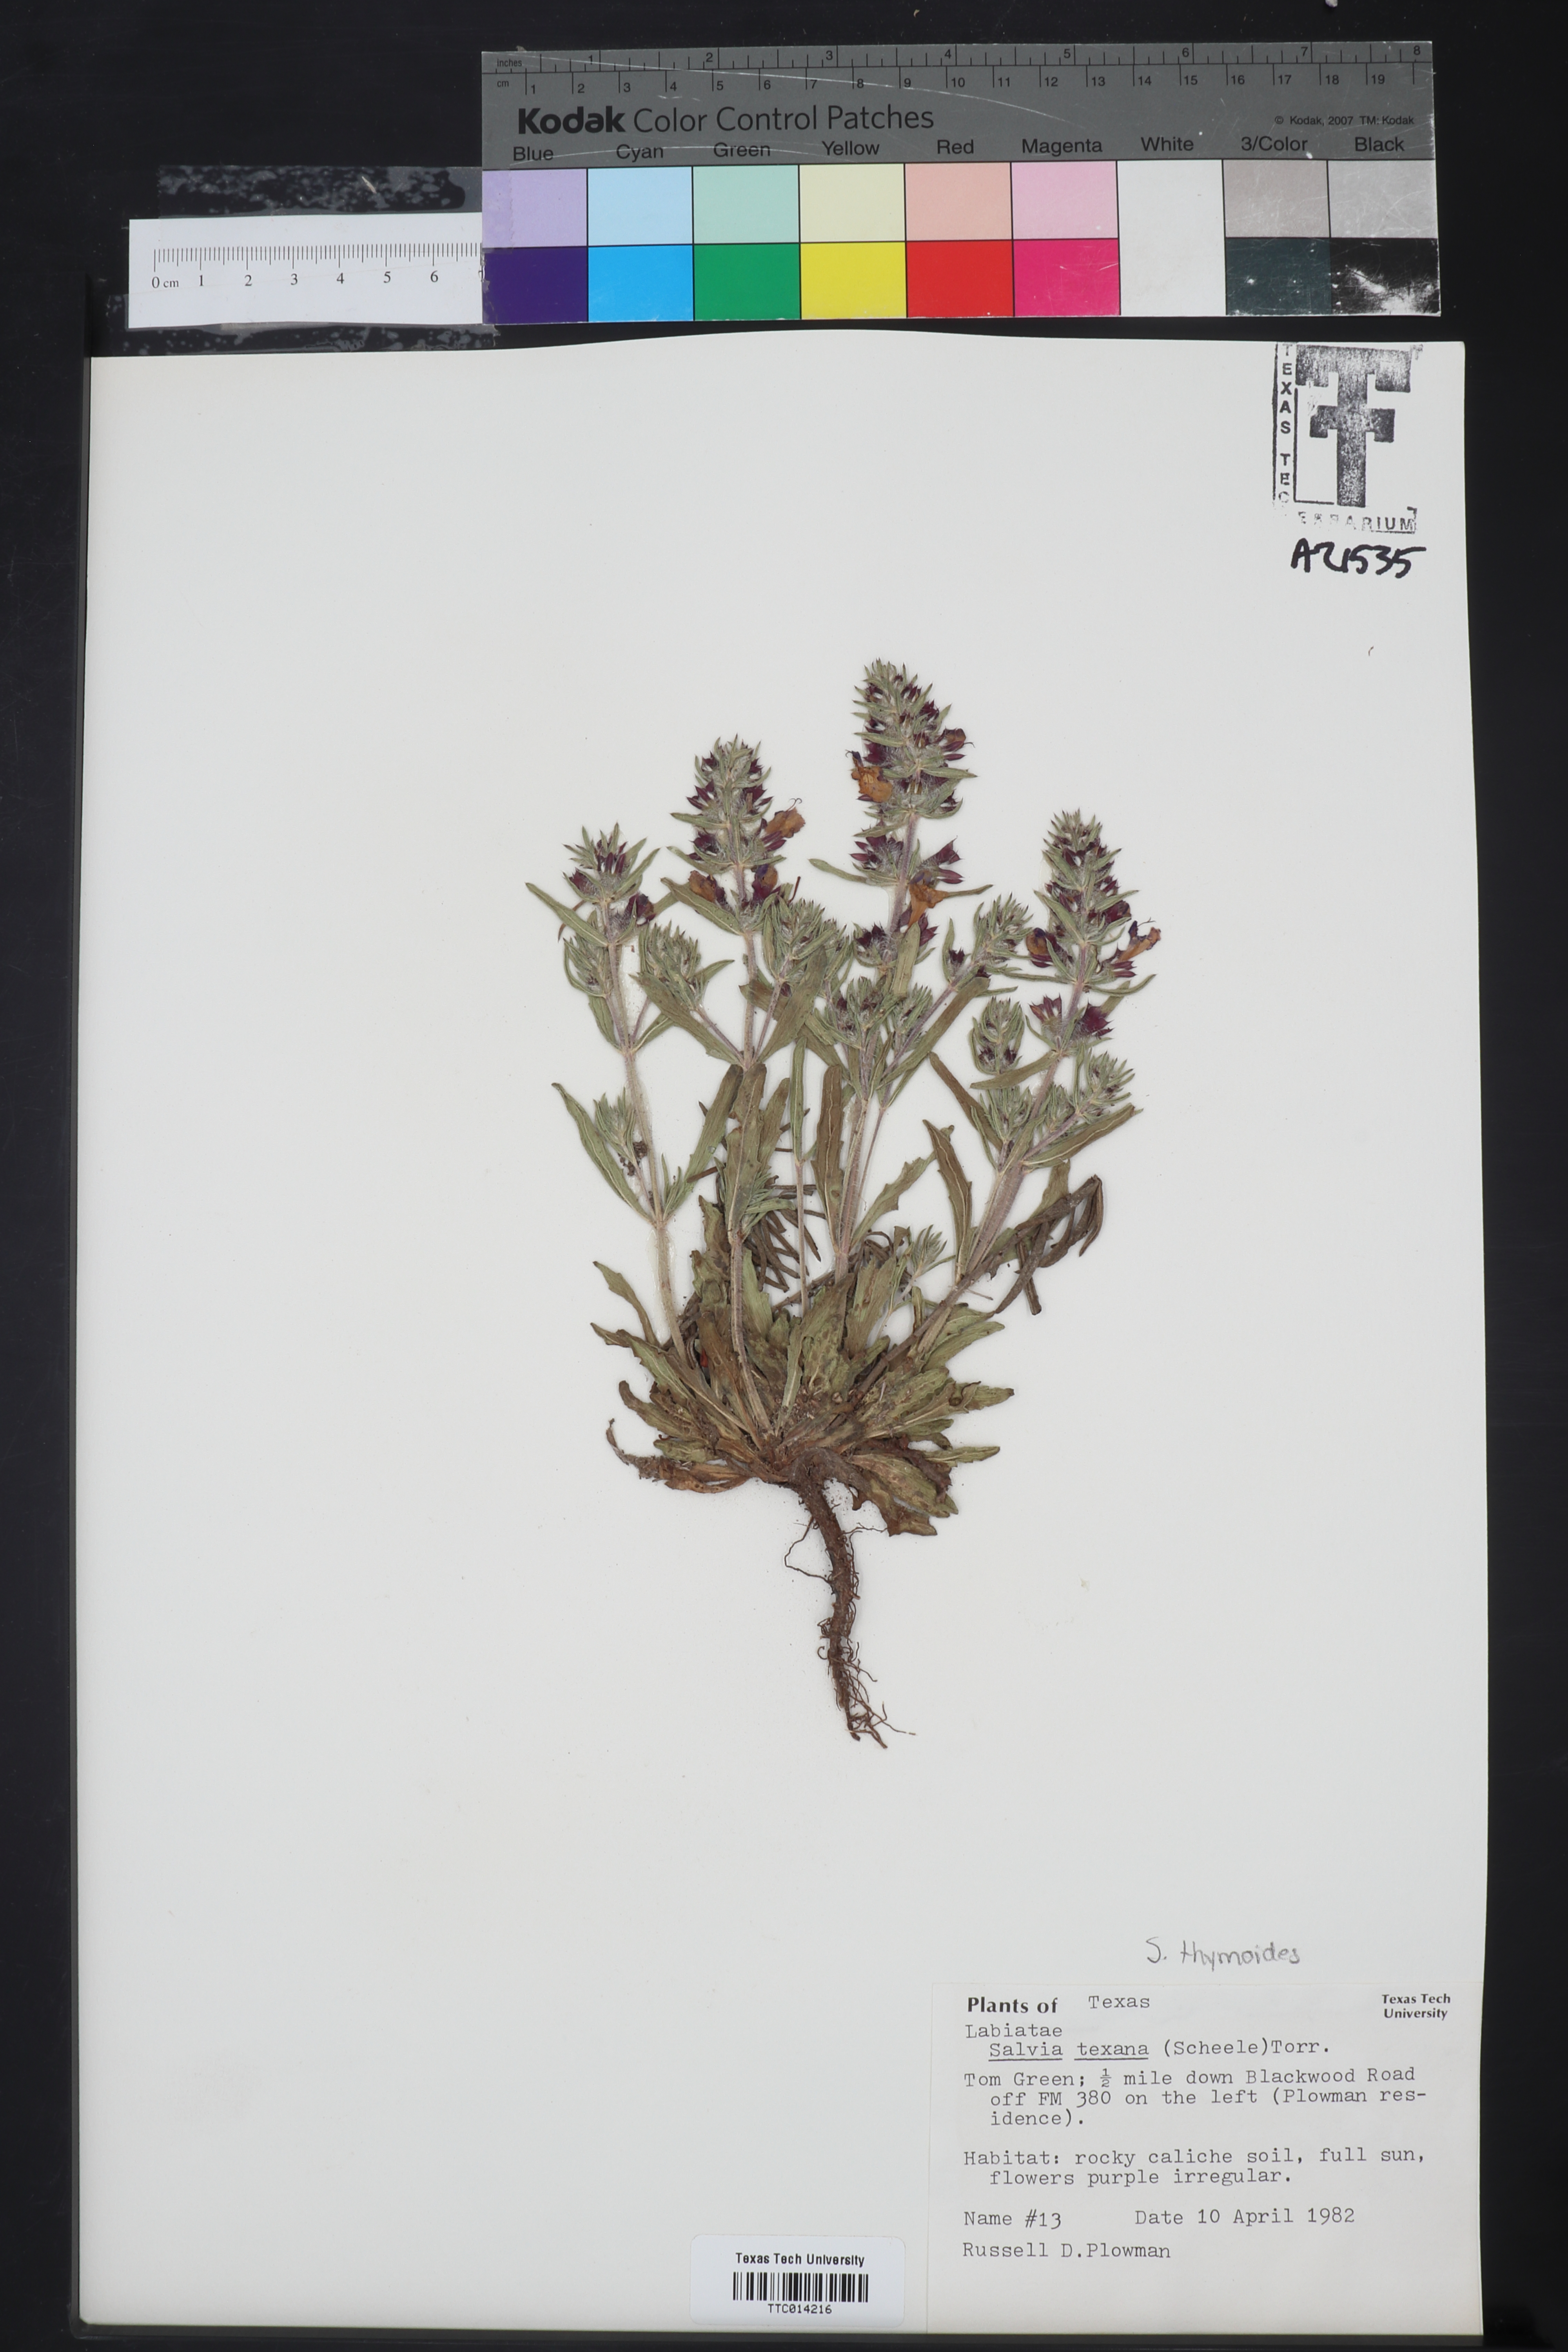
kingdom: Plantae
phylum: Tracheophyta
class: Magnoliopsida
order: Lamiales
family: Lamiaceae
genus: Salvia
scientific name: Salvia texana
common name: Texas sage
